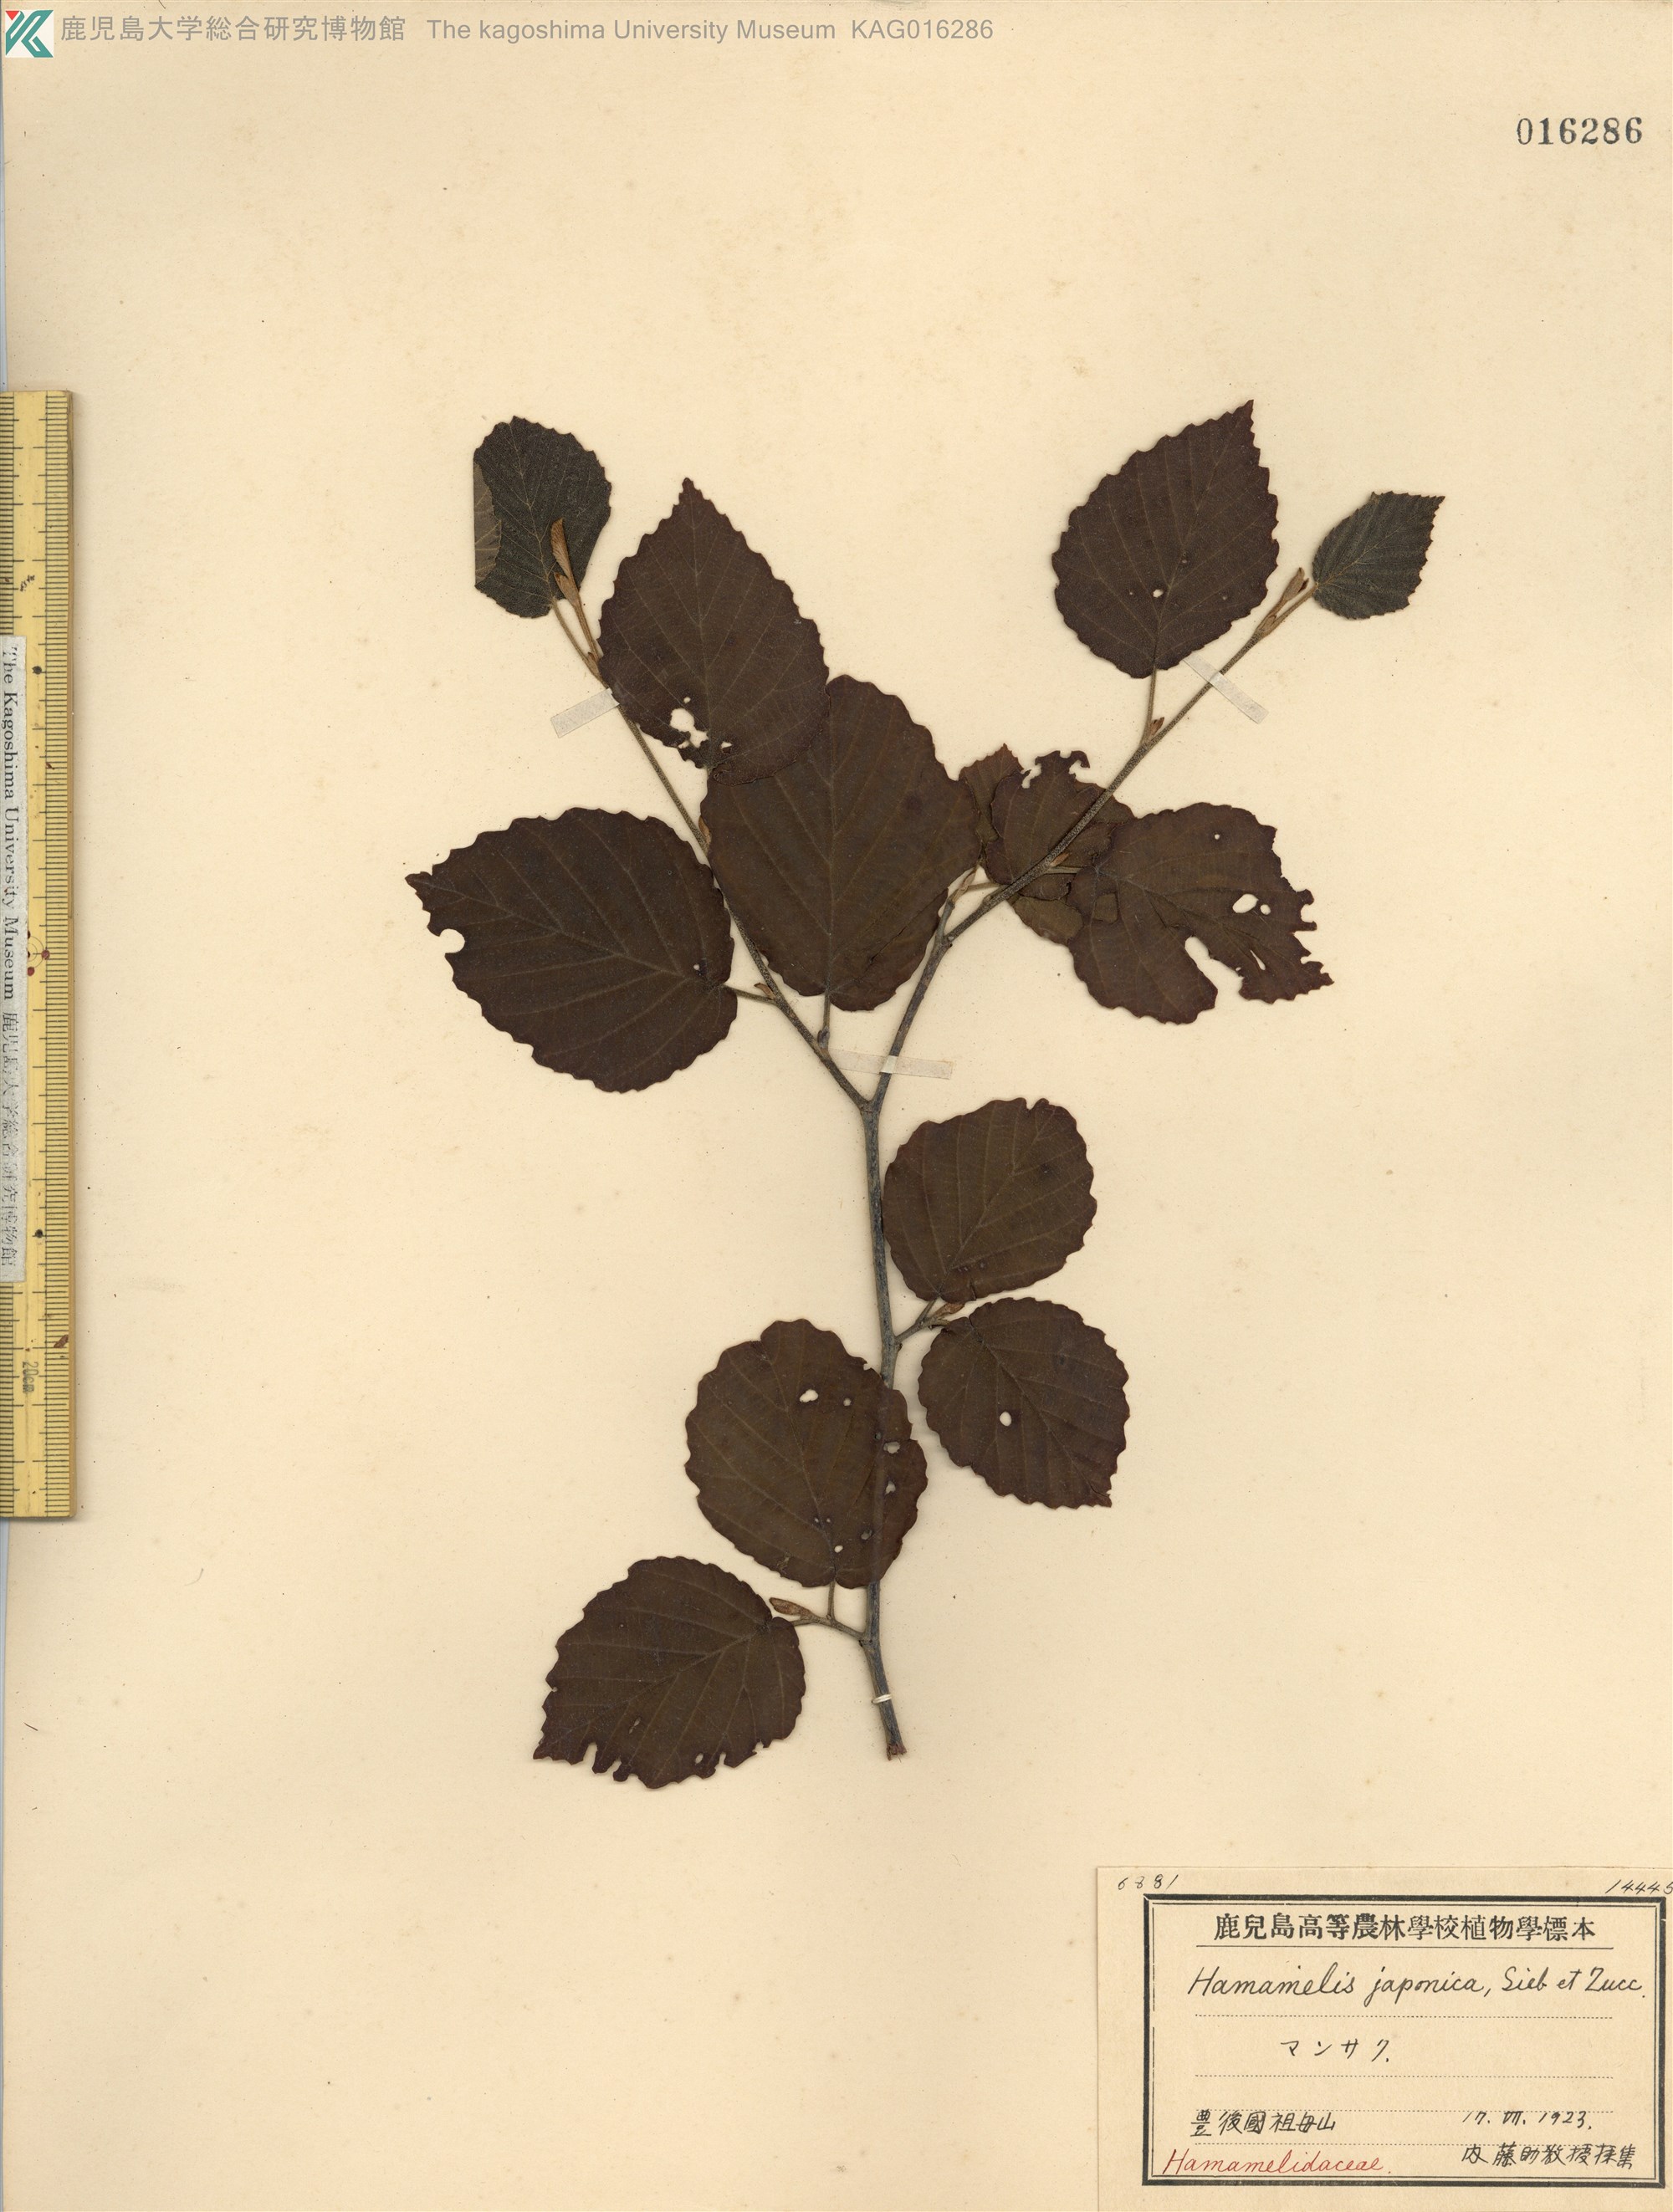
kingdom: Plantae
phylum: Tracheophyta
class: Magnoliopsida
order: Saxifragales
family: Hamamelidaceae
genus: Hamamelis
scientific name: Hamamelis japonica
